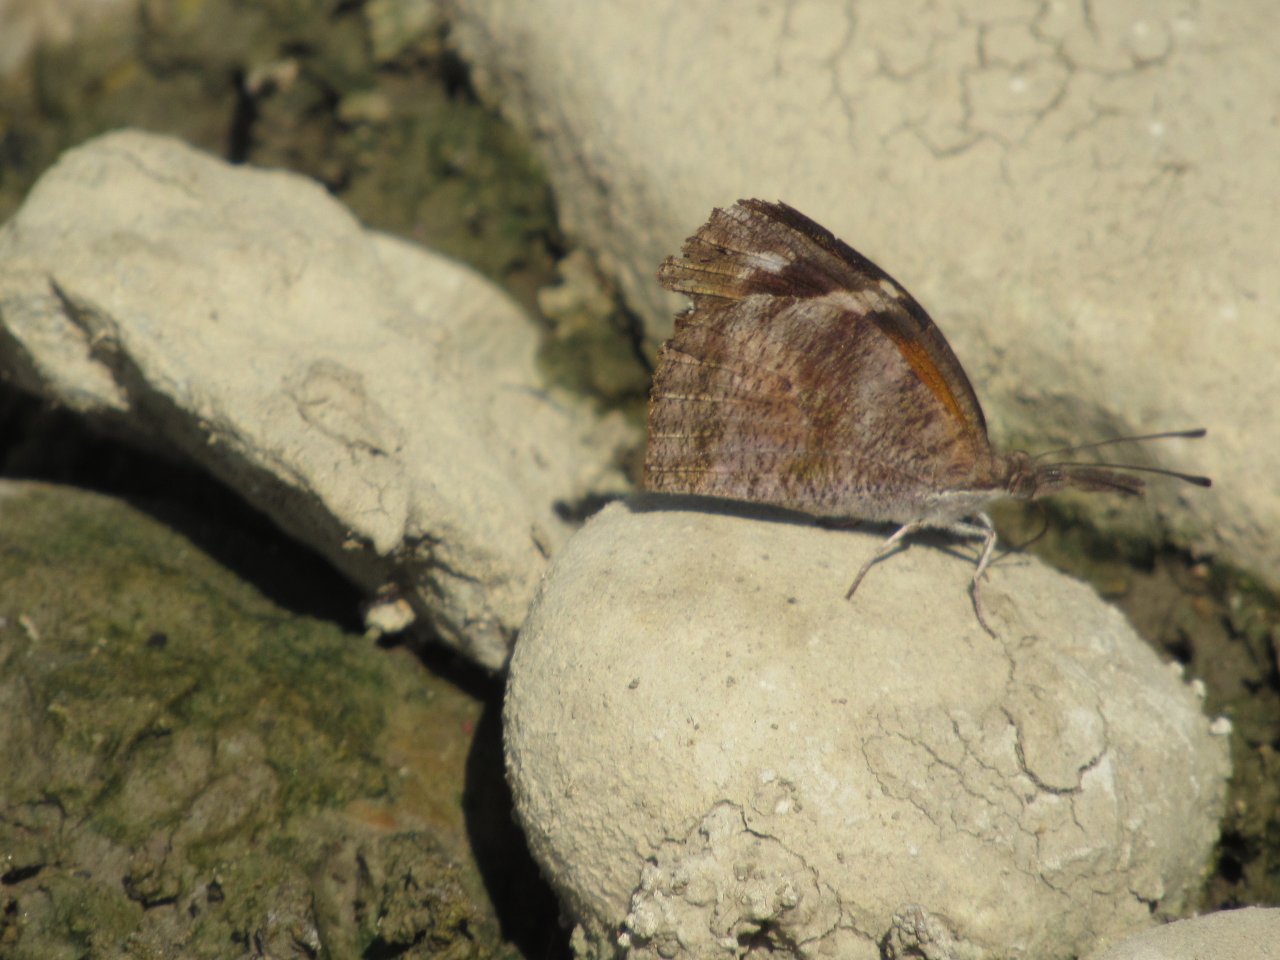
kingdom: Animalia
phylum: Arthropoda
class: Insecta
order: Lepidoptera
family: Nymphalidae
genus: Libytheana
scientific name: Libytheana carinenta
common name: American Snout
